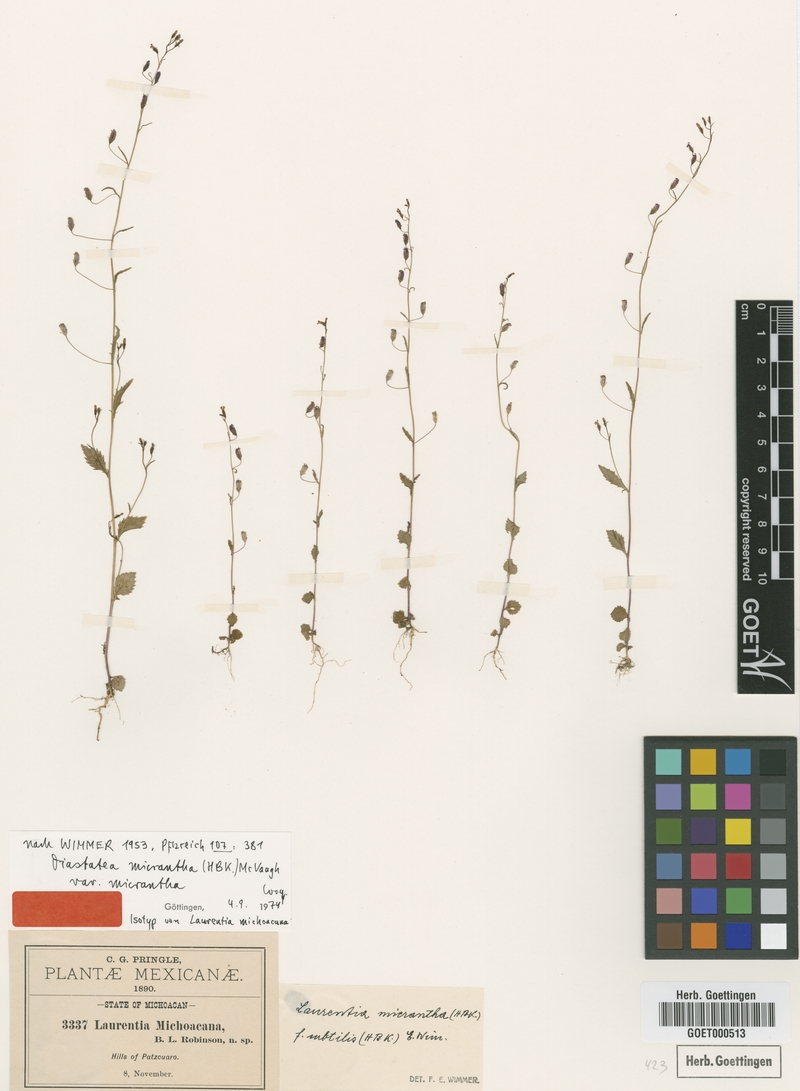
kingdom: Plantae
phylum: Tracheophyta
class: Magnoliopsida
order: Asterales
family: Campanulaceae
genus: Diastatea
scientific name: Diastatea micrantha
